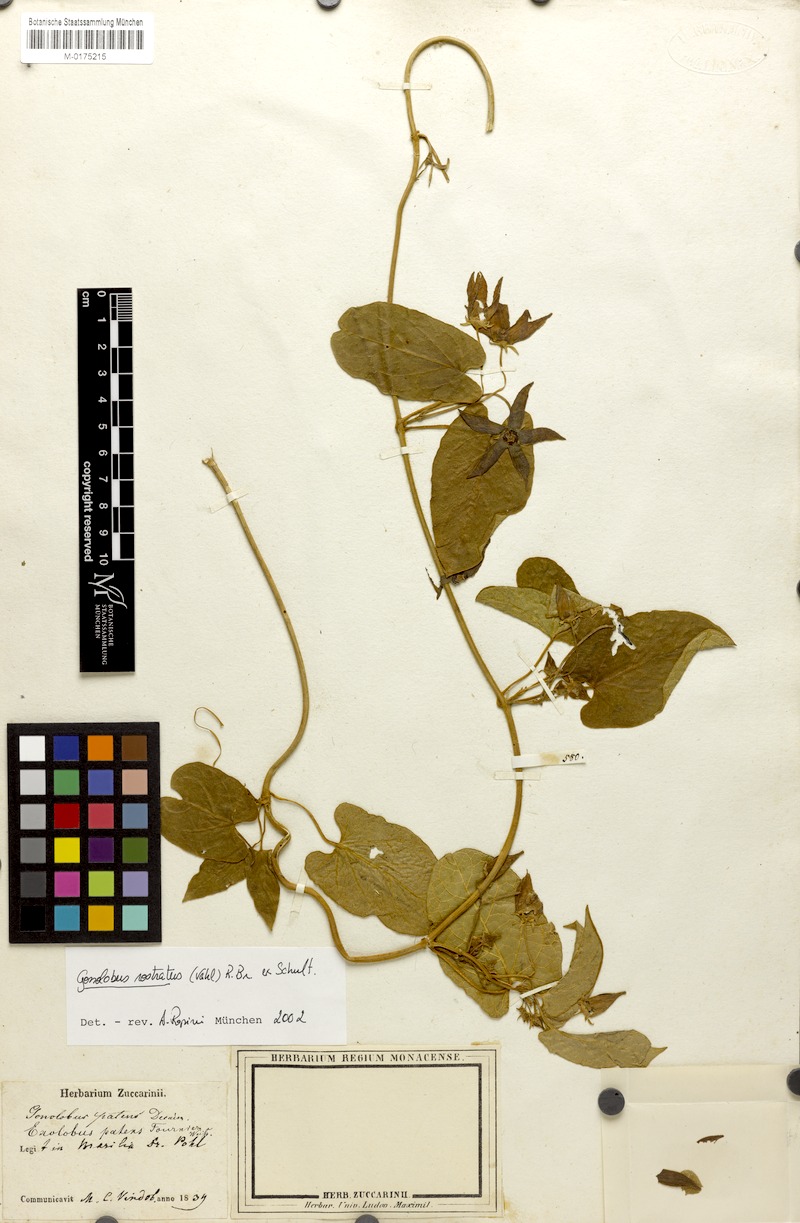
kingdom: Plantae
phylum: Tracheophyta
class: Magnoliopsida
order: Gentianales
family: Apocynaceae
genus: Gonolobus
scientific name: Gonolobus rostratus
